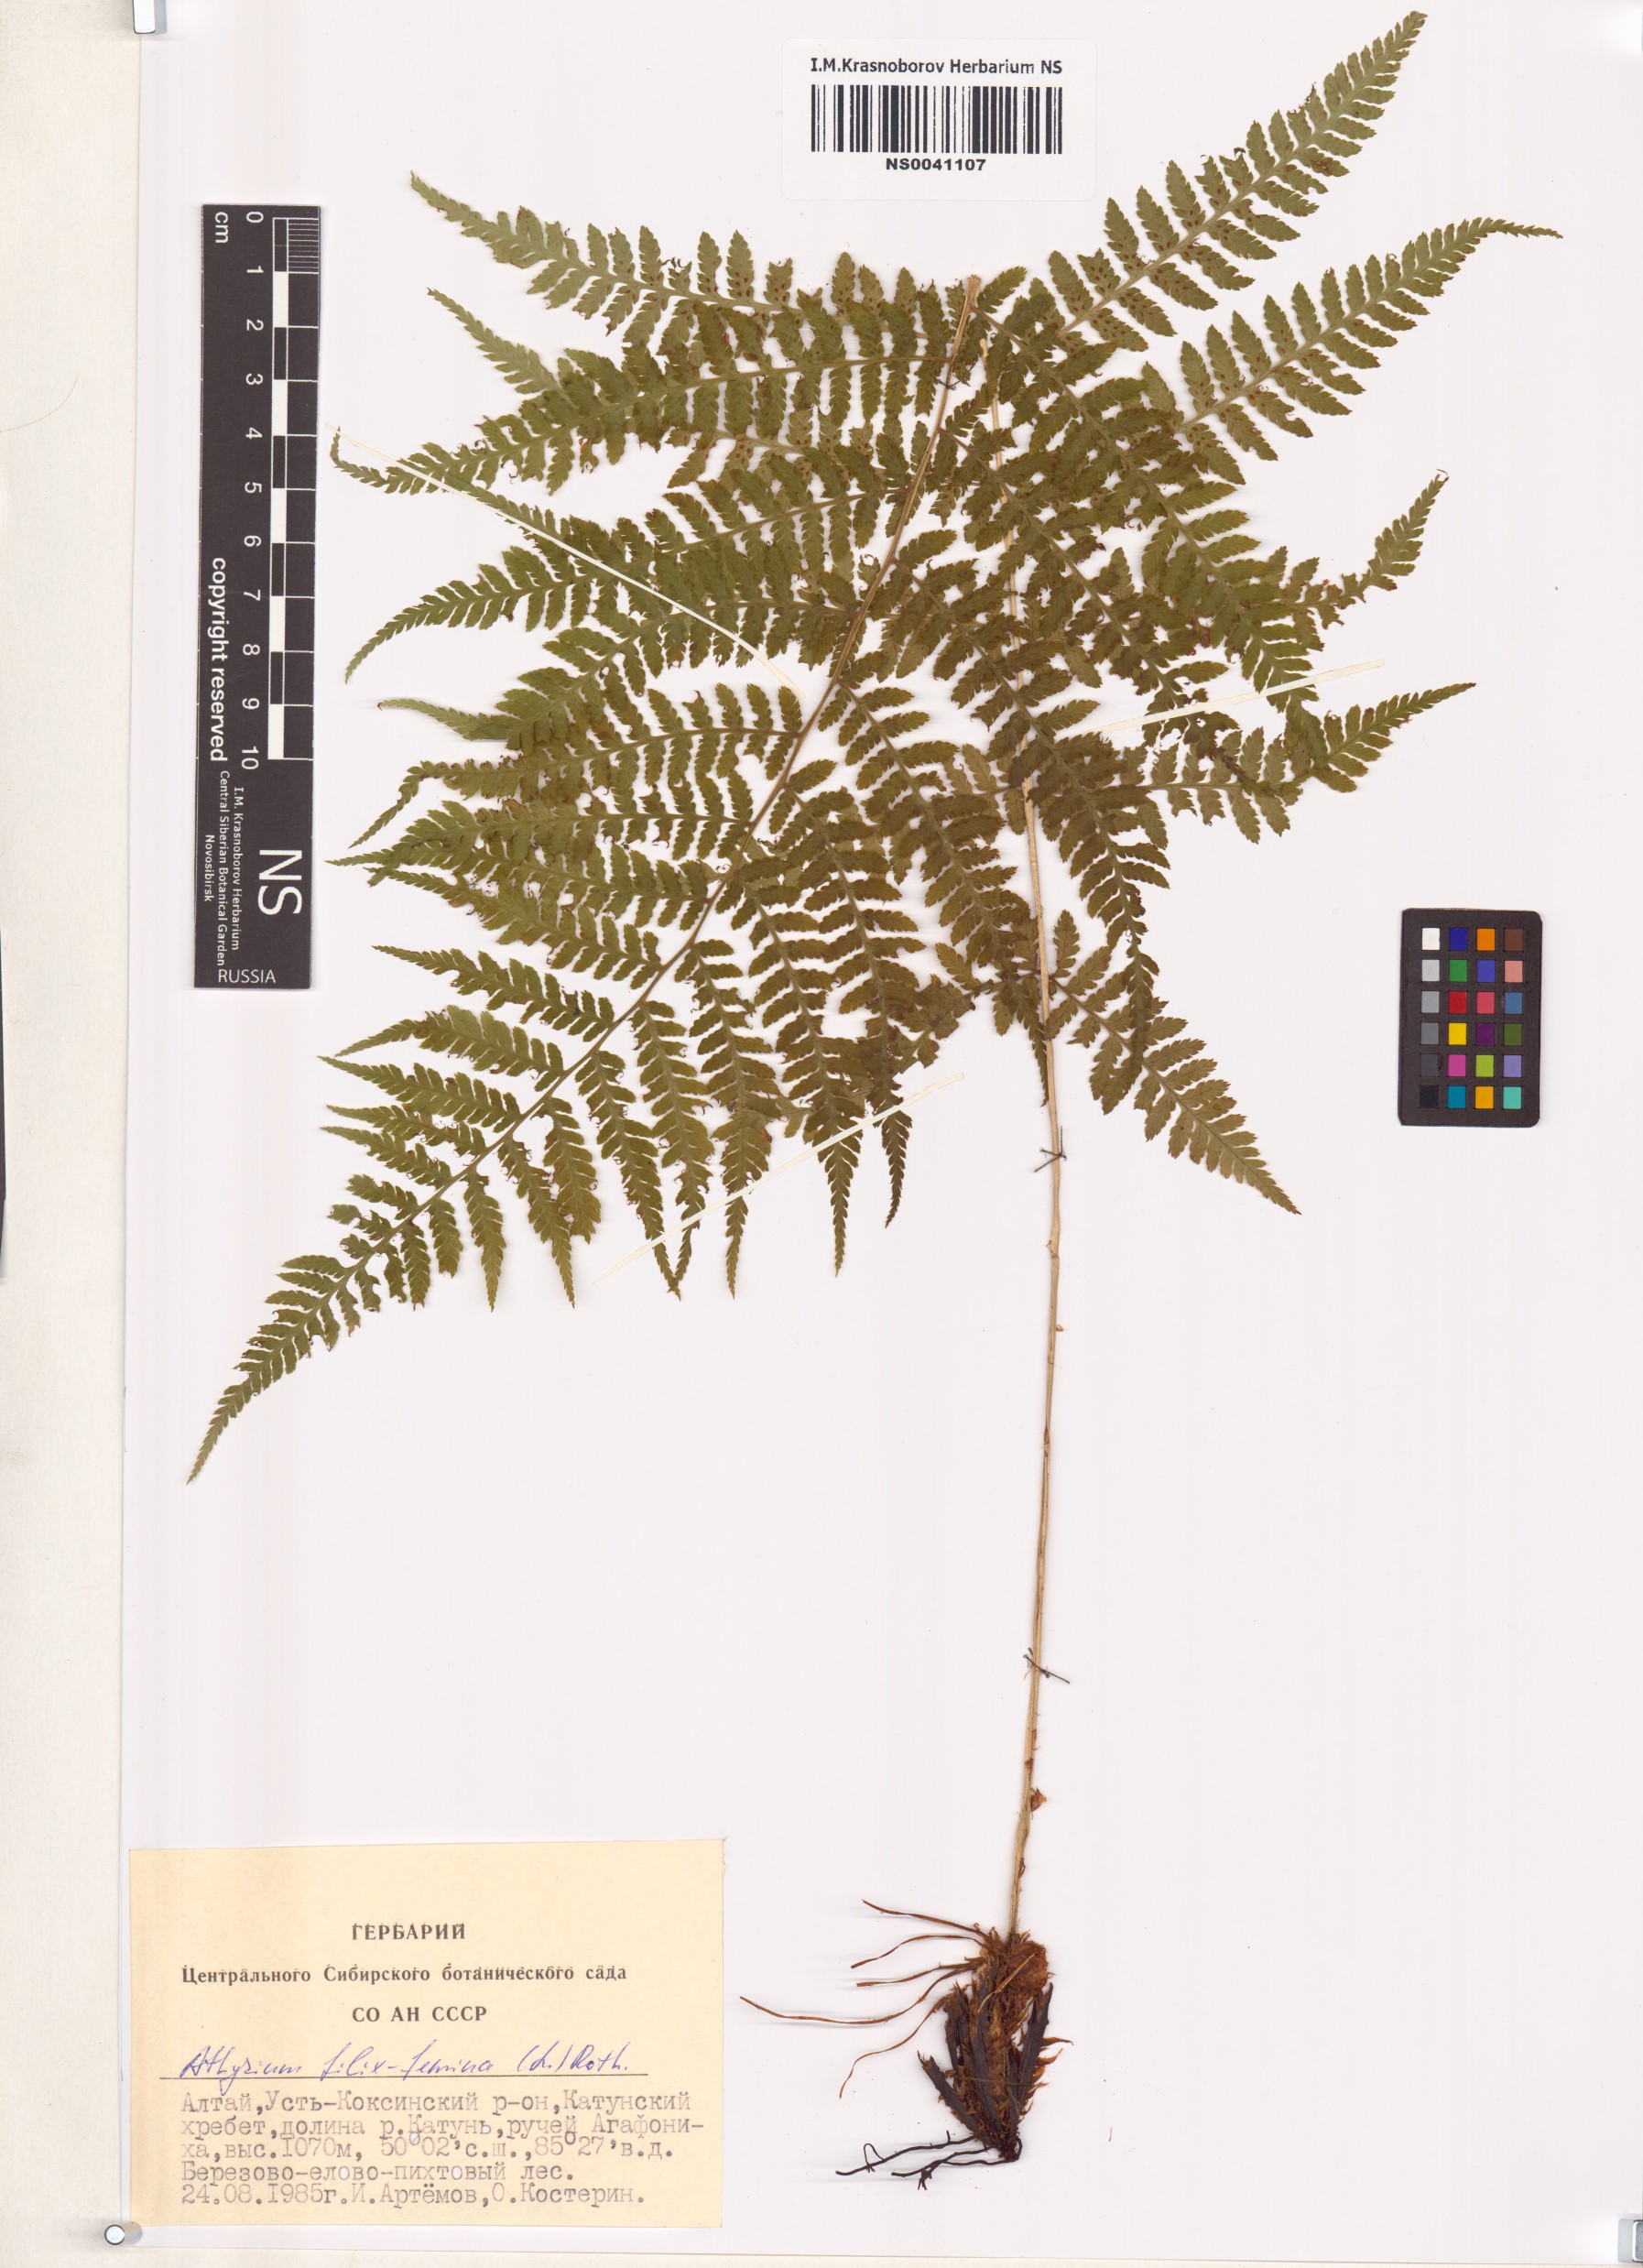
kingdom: Plantae
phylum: Tracheophyta
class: Polypodiopsida
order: Polypodiales
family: Athyriaceae
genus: Athyrium
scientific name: Athyrium filix-femina
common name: Lady fern
